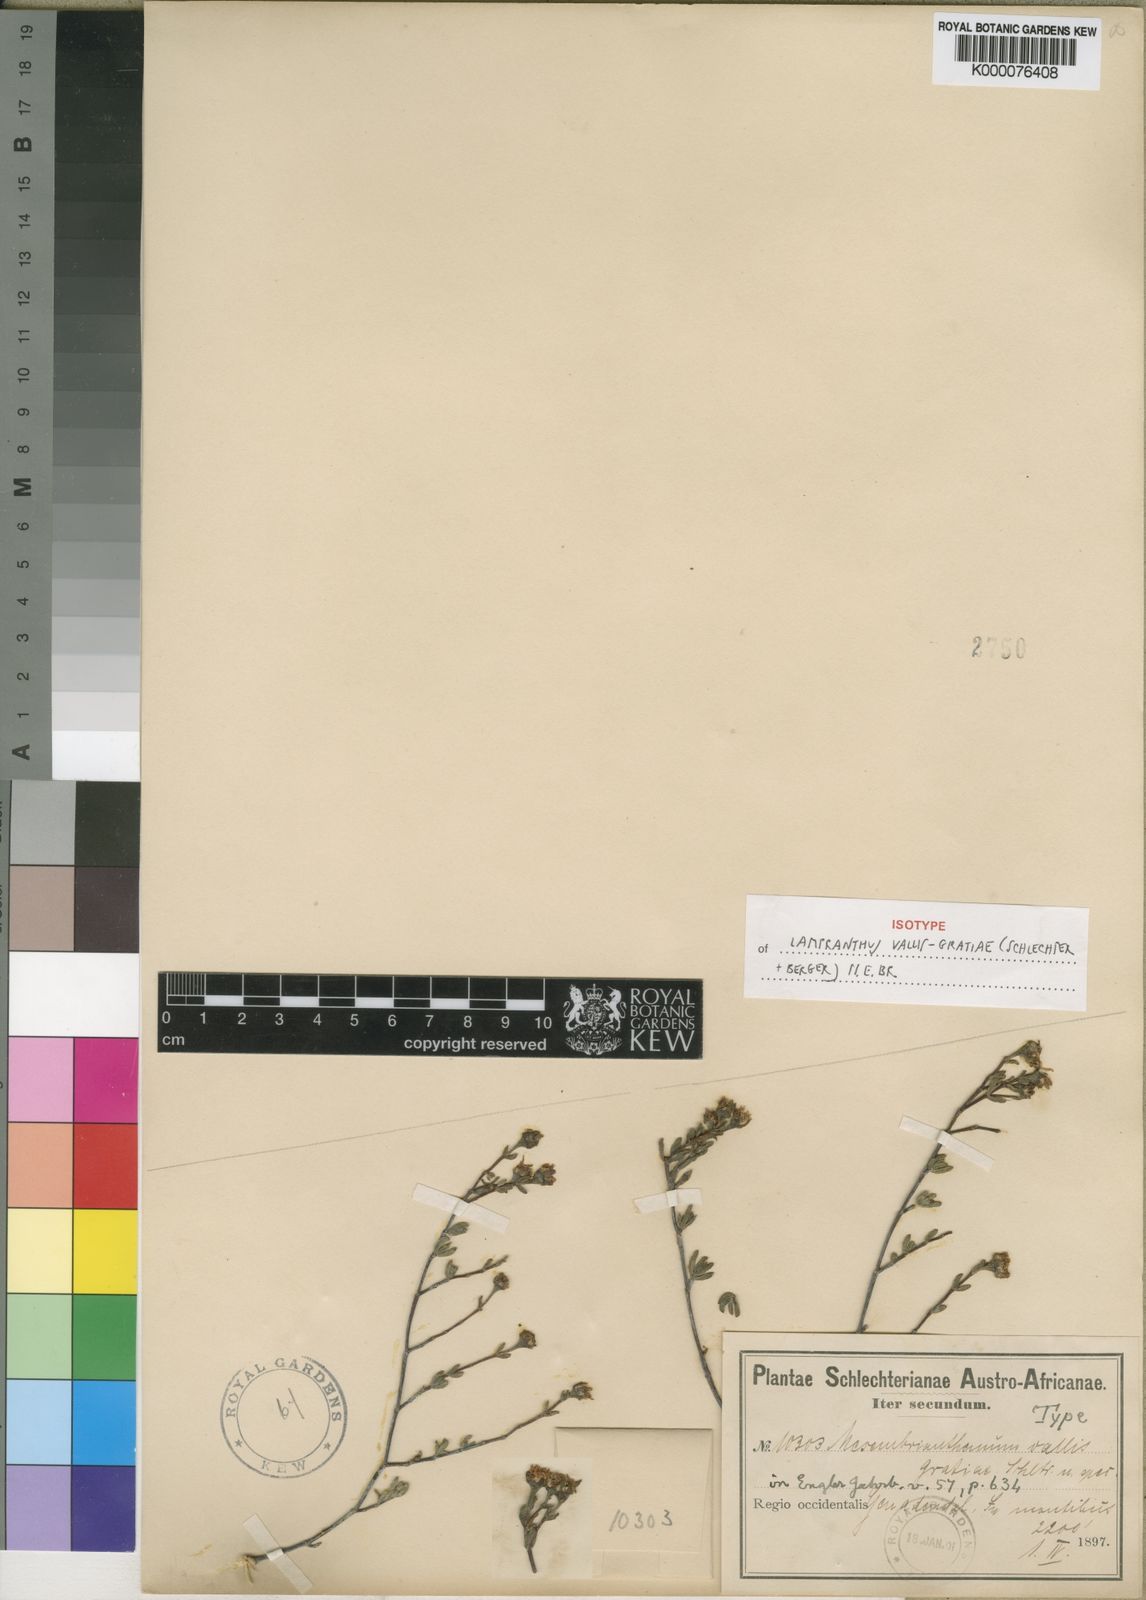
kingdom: Plantae
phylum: Tracheophyta
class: Magnoliopsida
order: Caryophyllales
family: Aizoaceae
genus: Lampranthus
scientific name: Lampranthus vallis-gratiae
